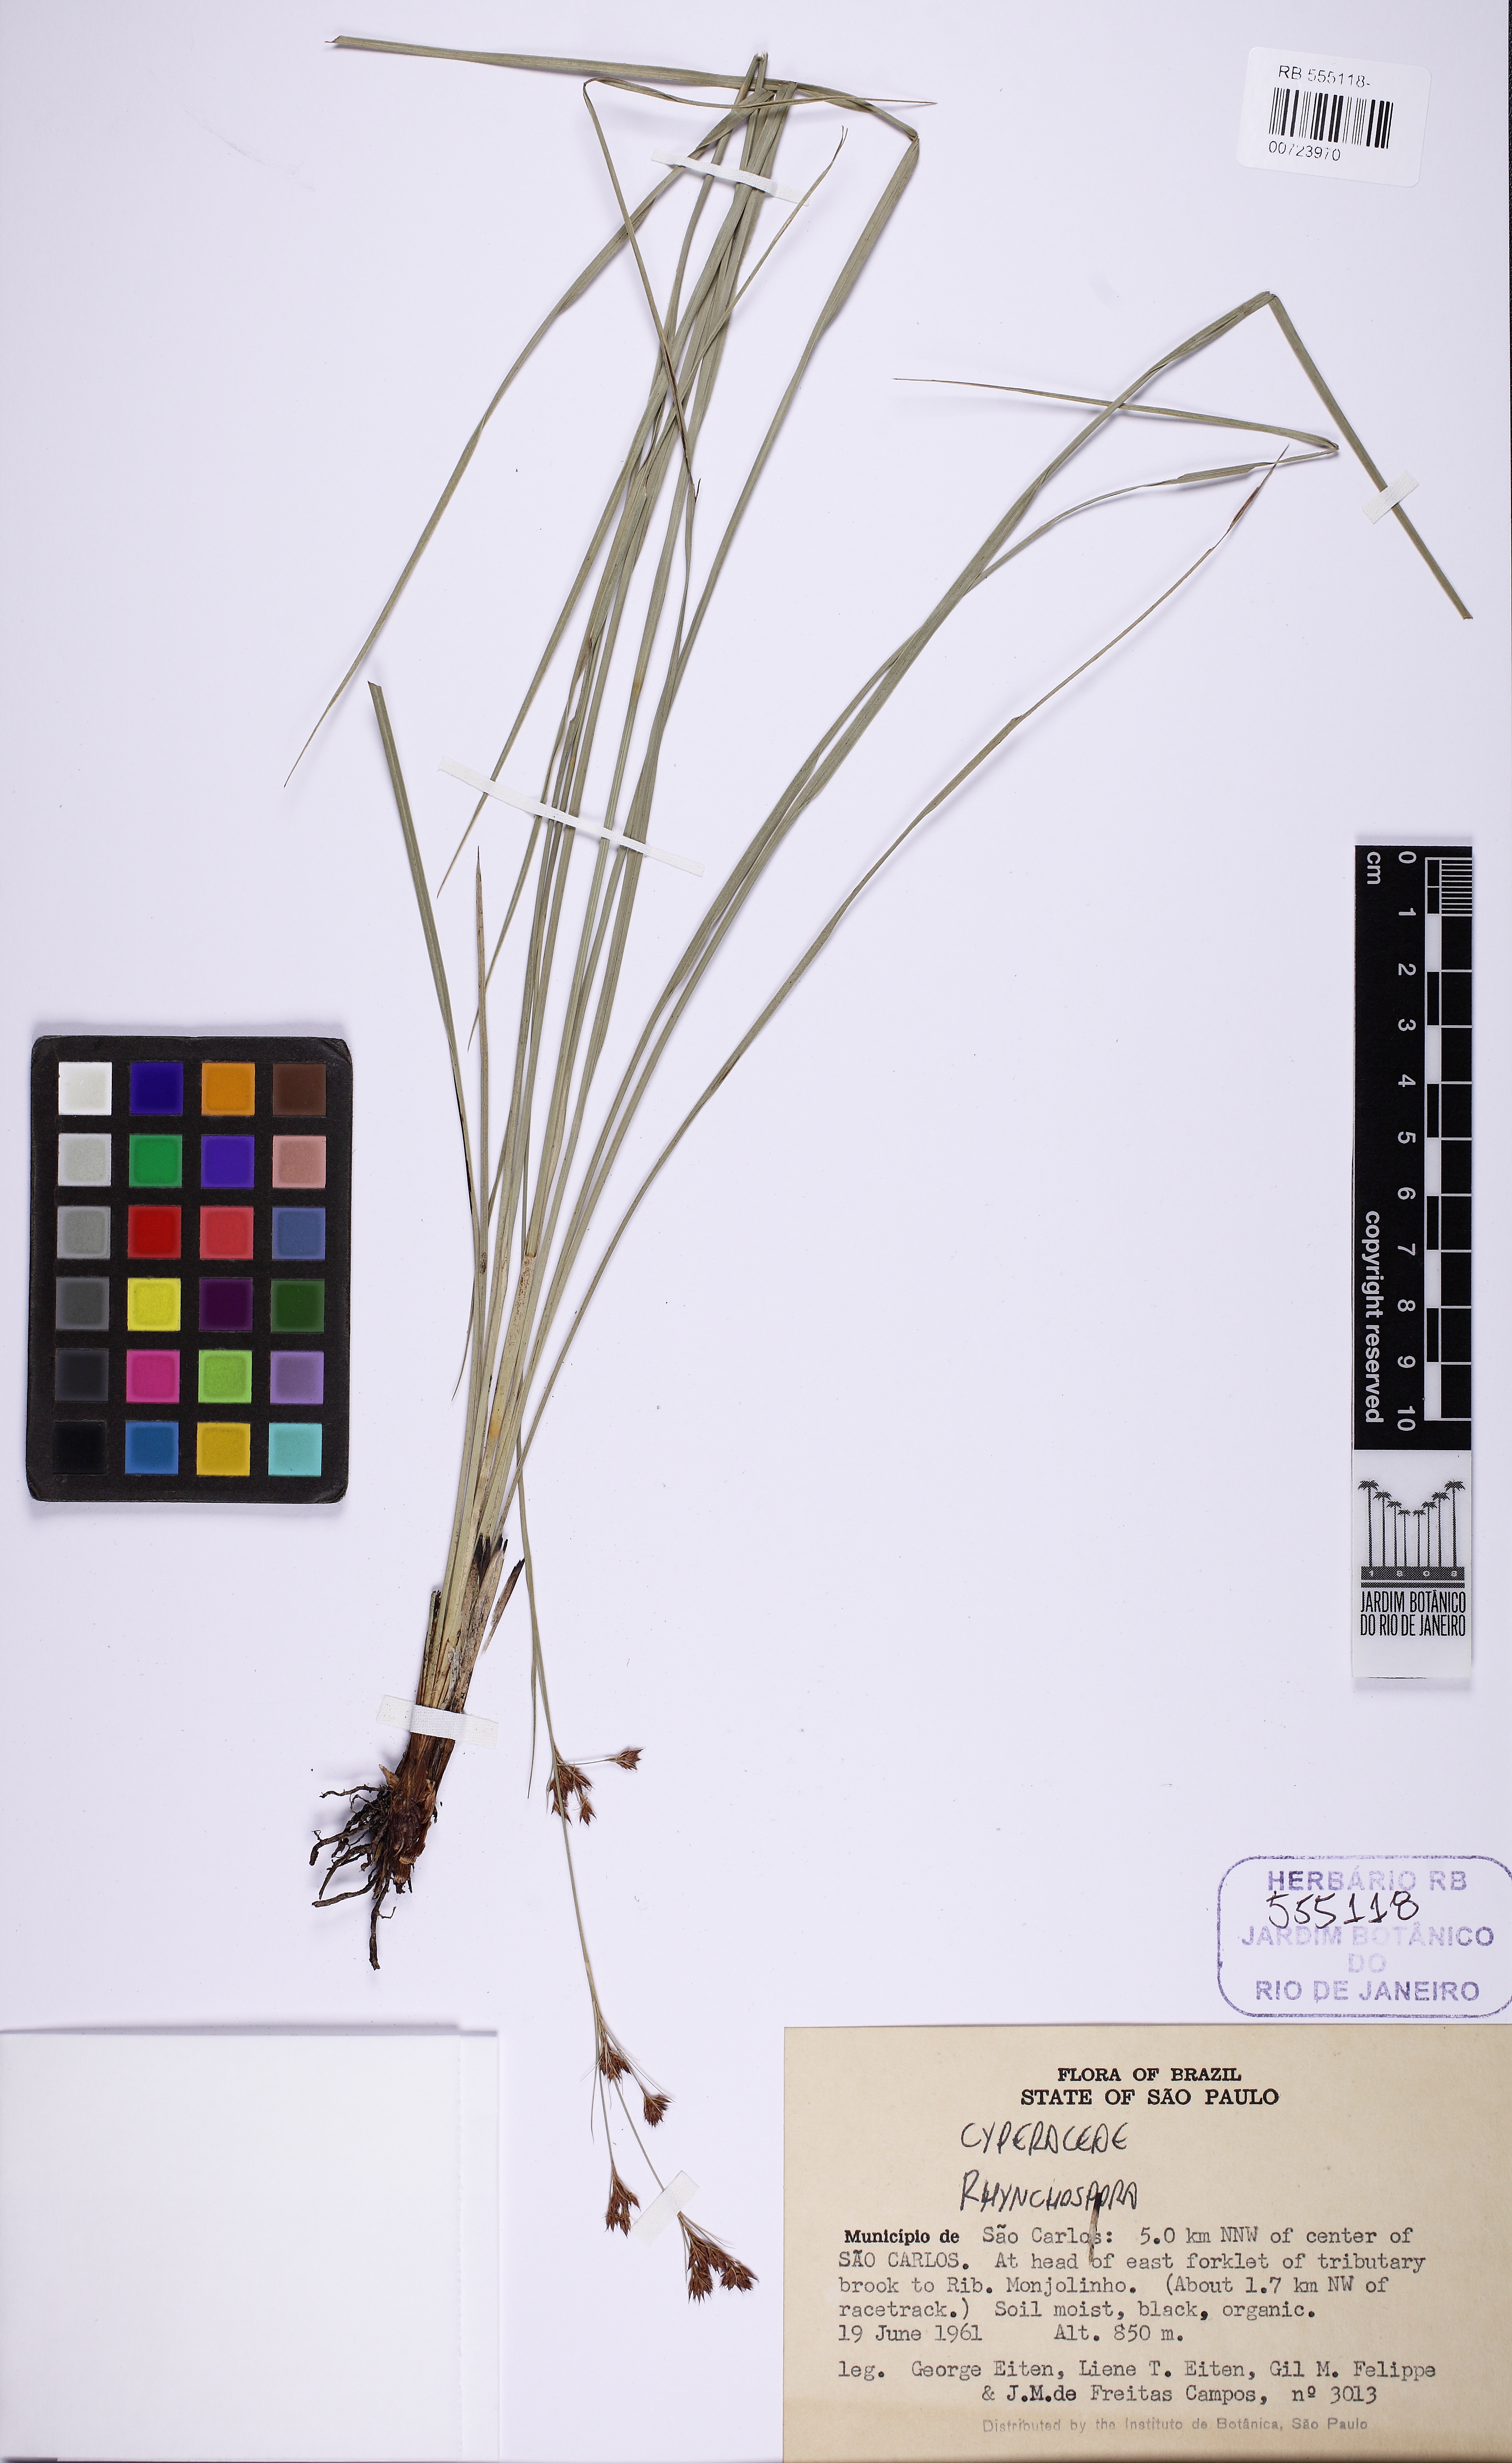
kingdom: Plantae
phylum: Tracheophyta
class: Liliopsida
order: Poales
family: Cyperaceae
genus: Rhynchospora
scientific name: Rhynchospora rugosa
